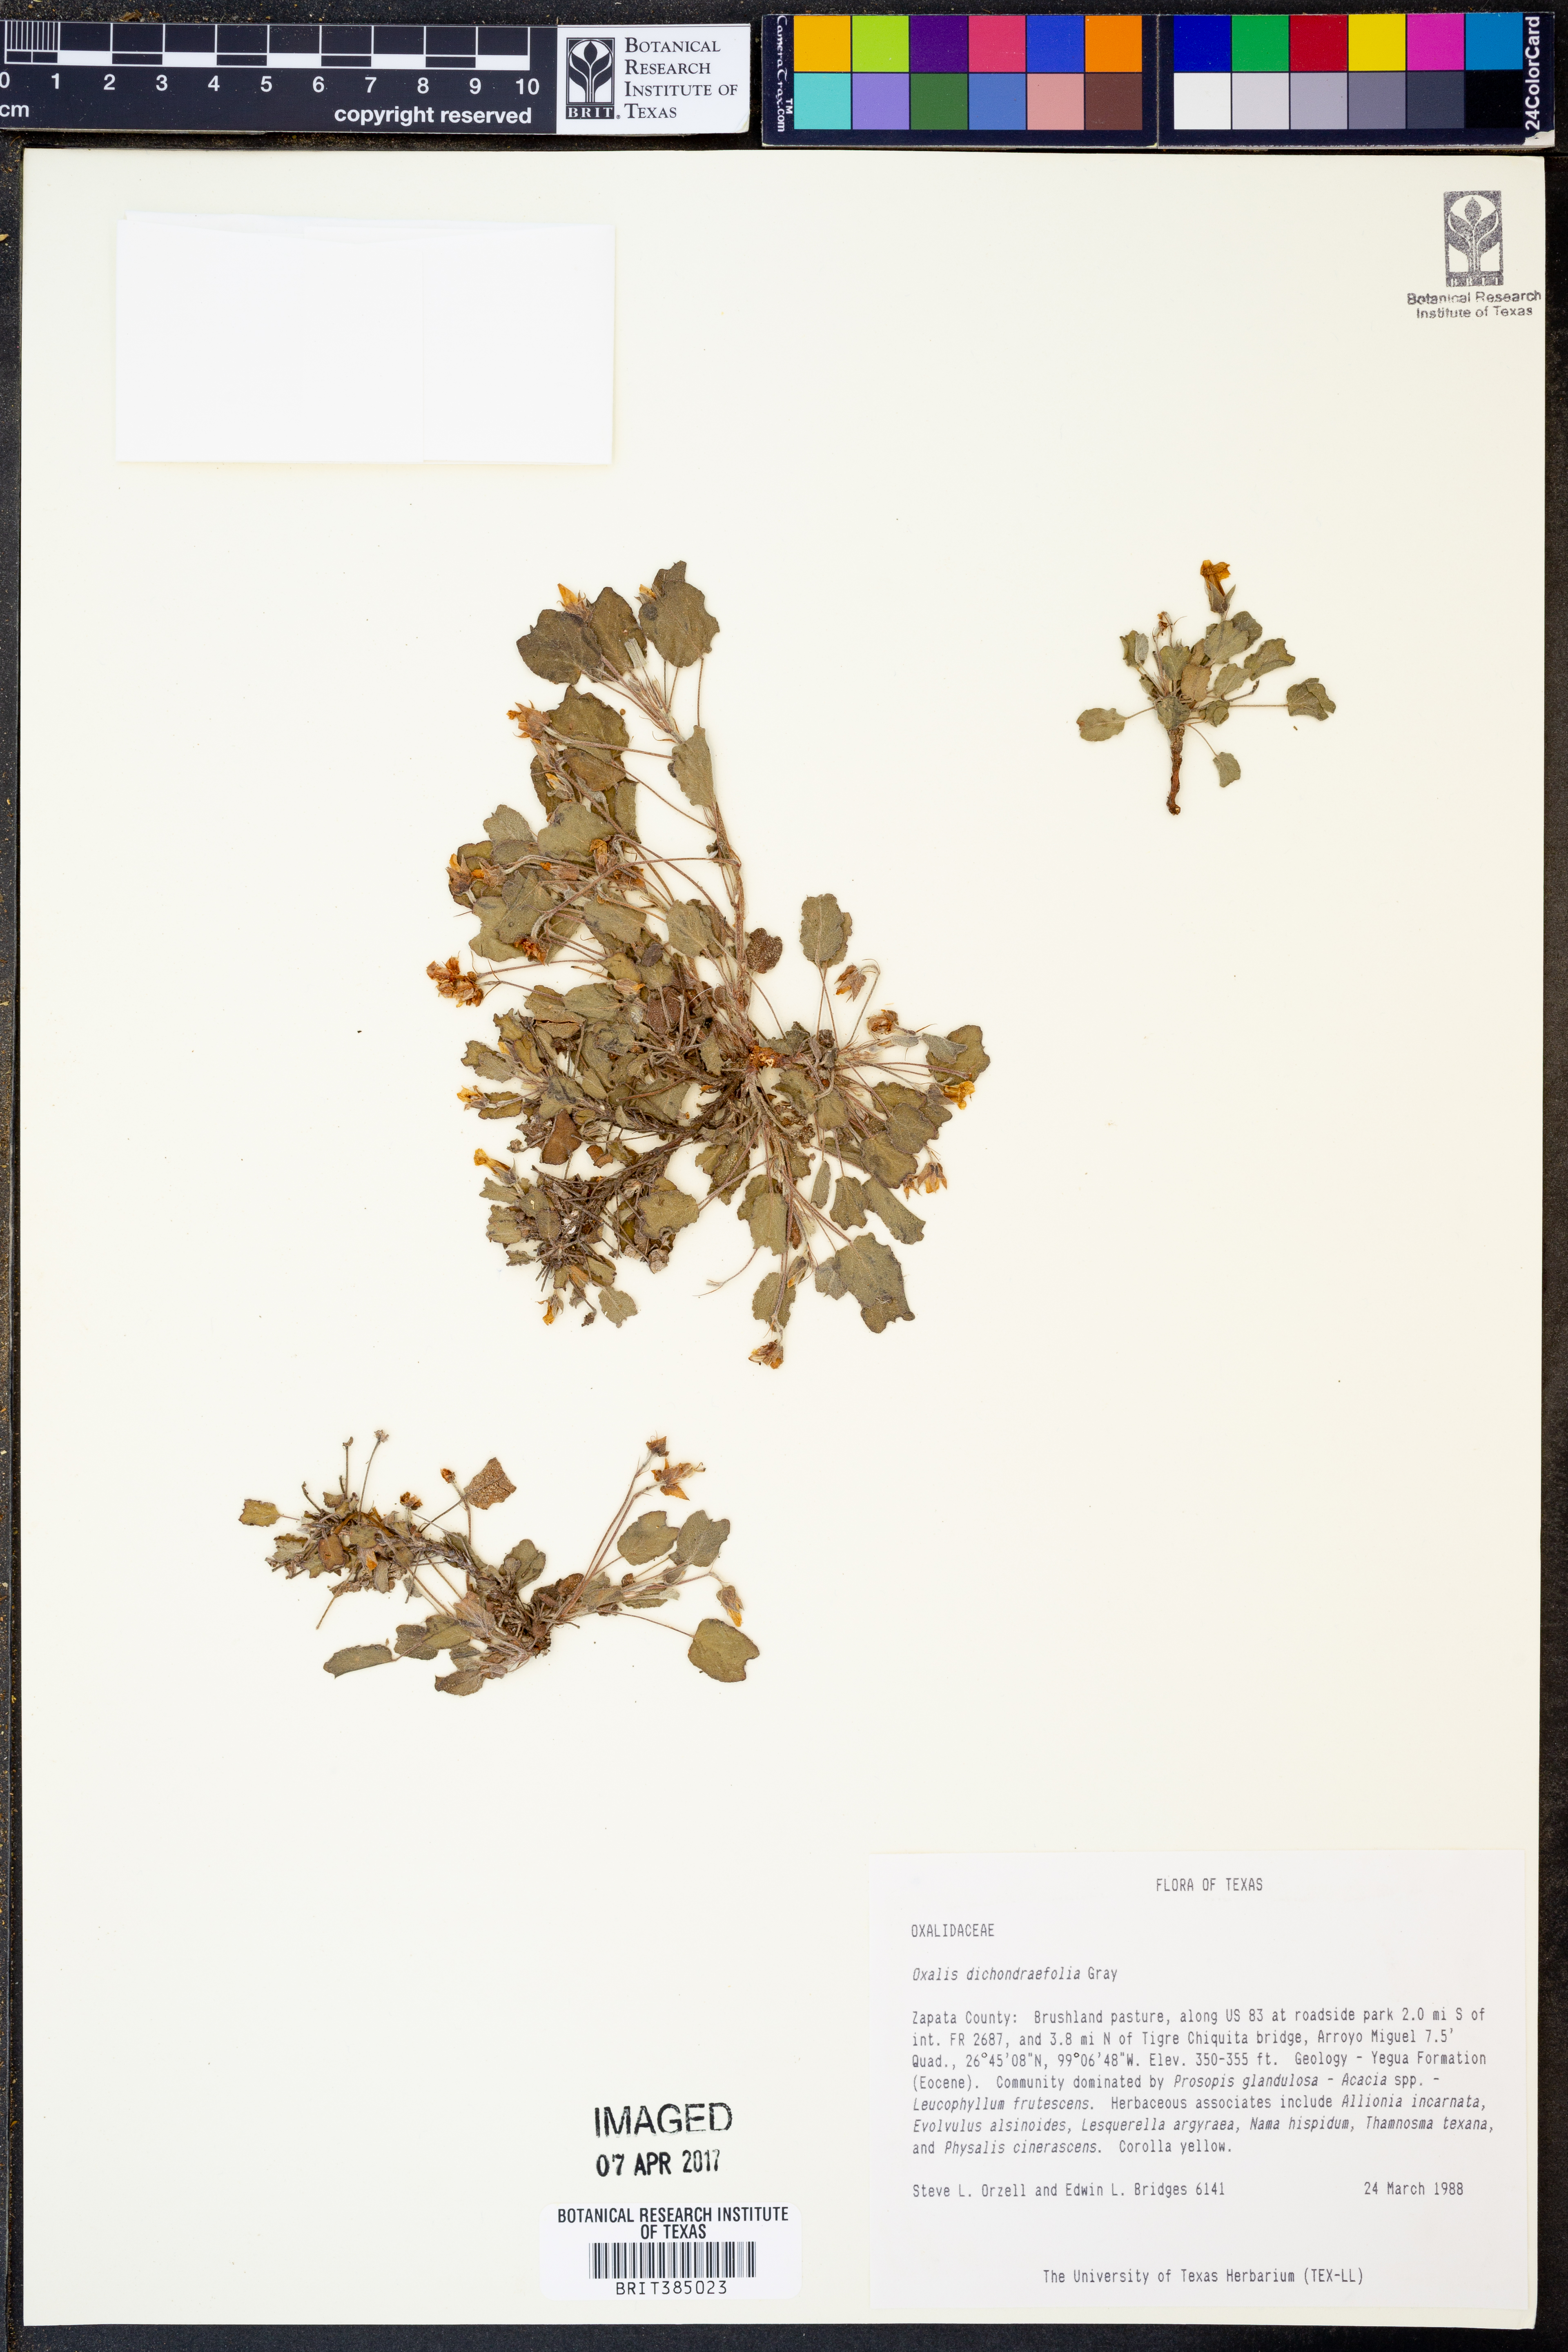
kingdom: Plantae
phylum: Tracheophyta
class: Magnoliopsida
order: Oxalidales
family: Oxalidaceae
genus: Oxalis
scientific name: Oxalis dichondrifolia
